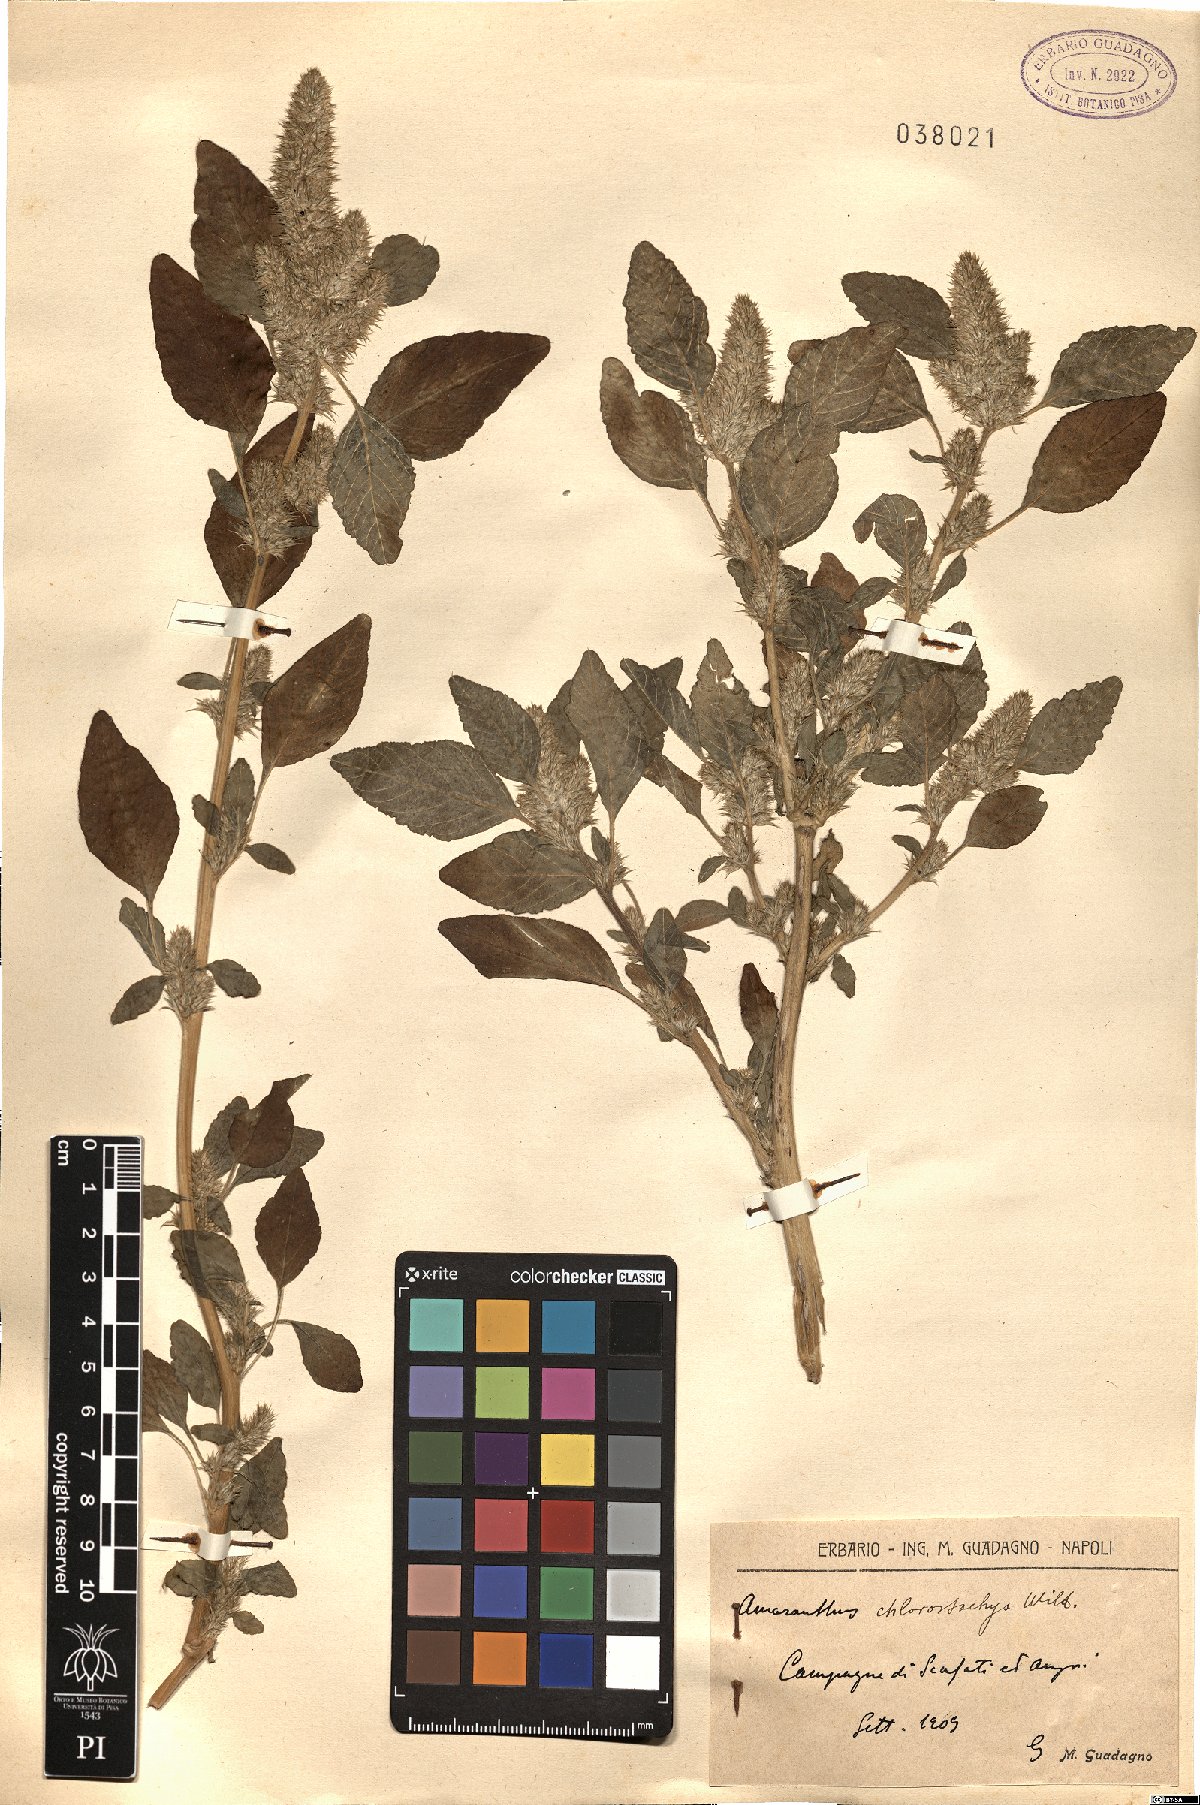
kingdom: Plantae
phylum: Tracheophyta
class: Magnoliopsida
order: Caryophyllales
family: Amaranthaceae
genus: Amaranthus
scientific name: Amaranthus
